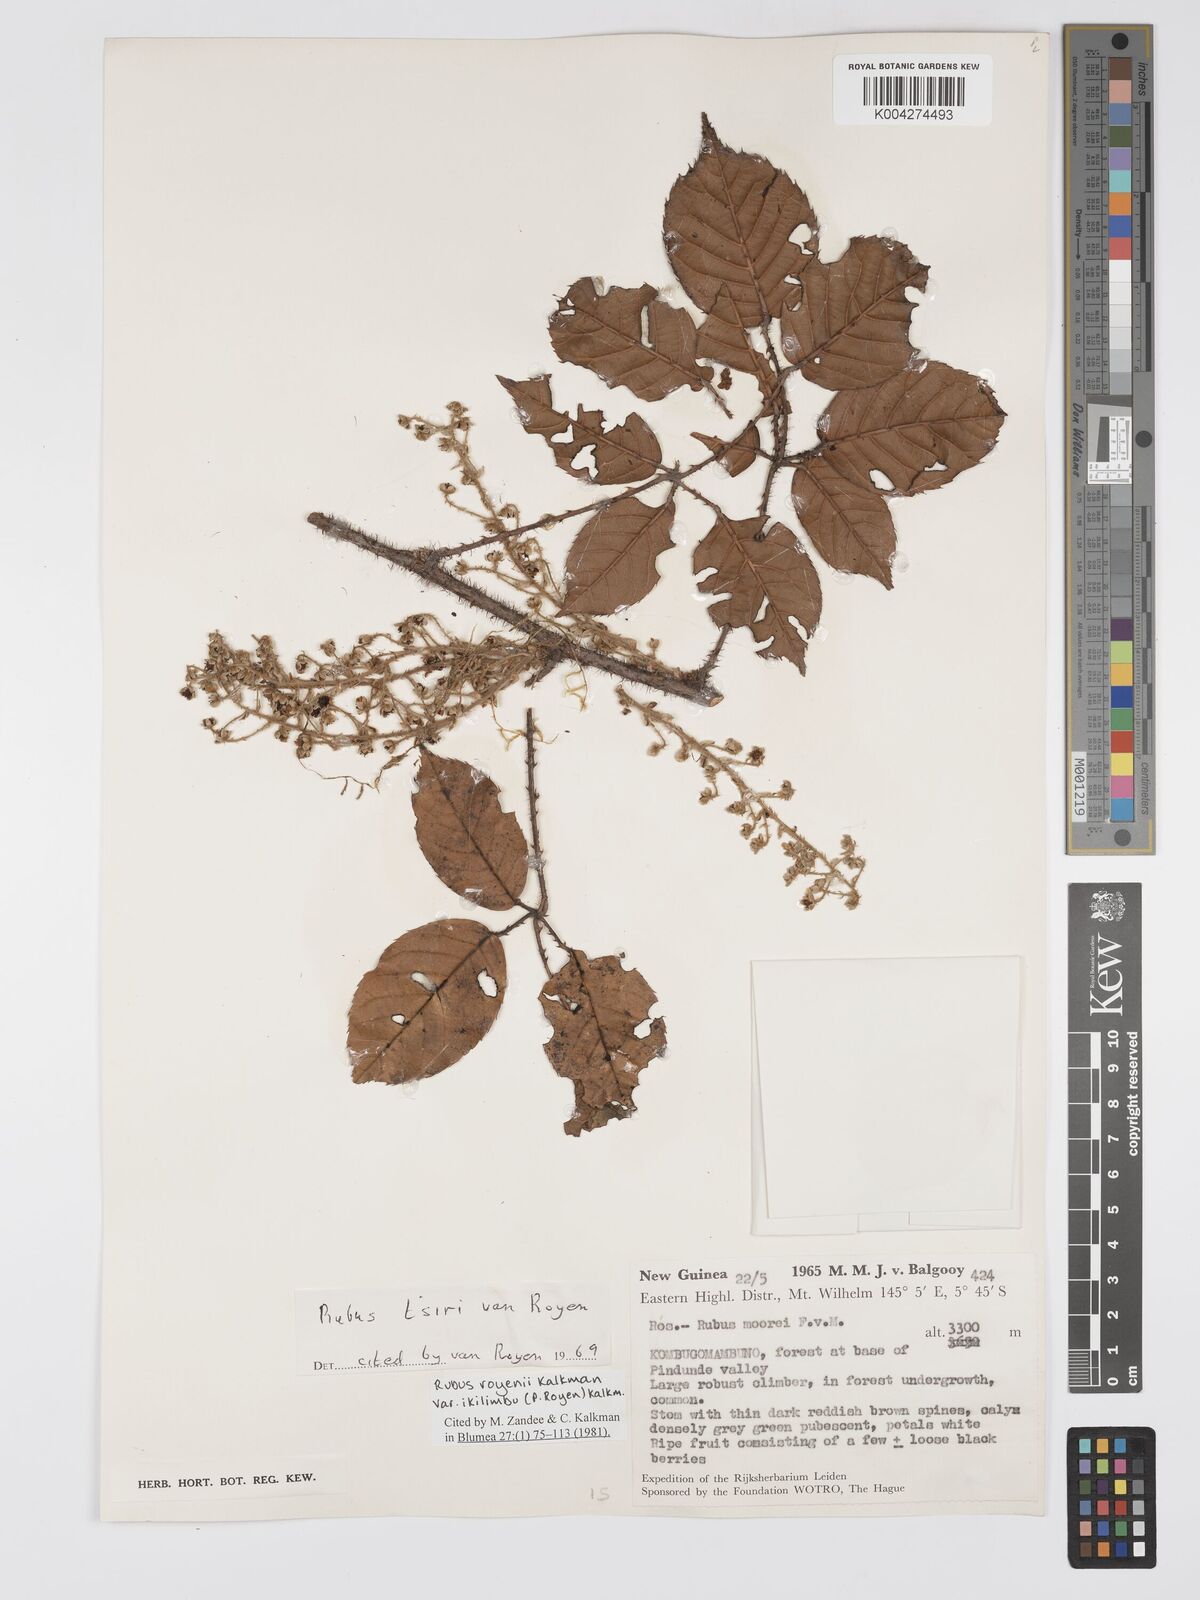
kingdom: Plantae
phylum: Tracheophyta
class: Magnoliopsida
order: Rosales
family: Rosaceae
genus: Rubus
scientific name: Rubus royenii
